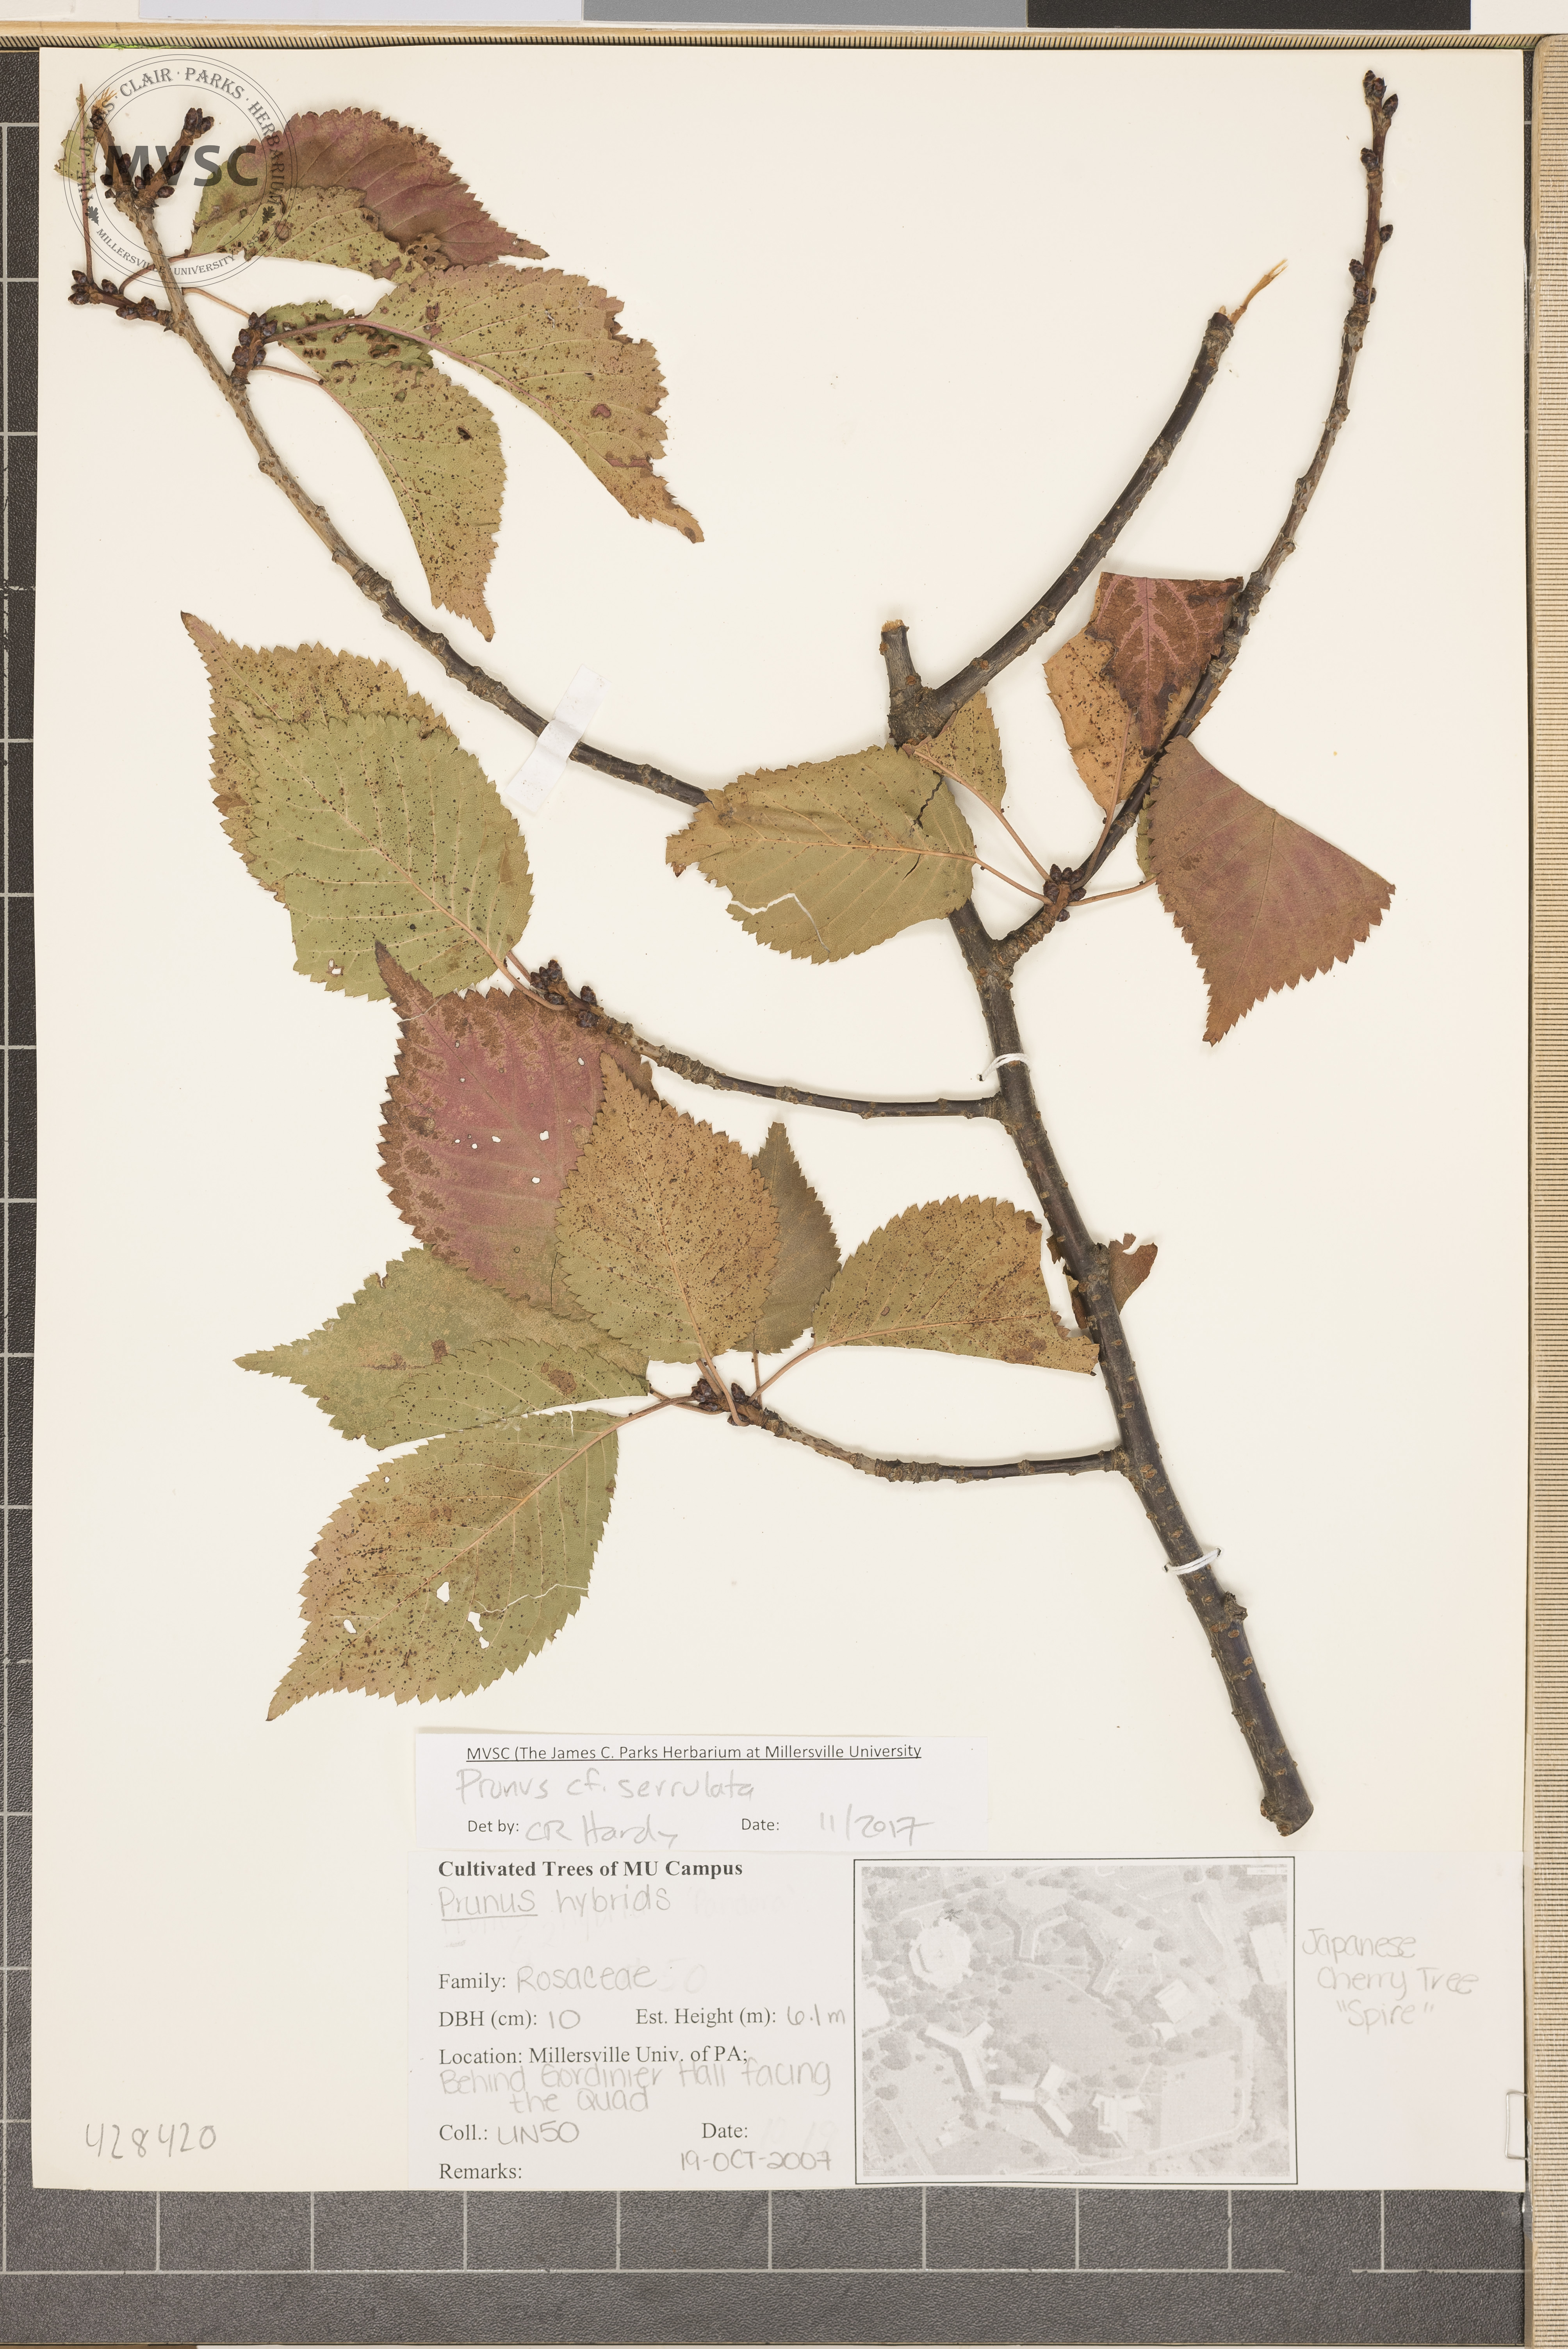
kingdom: Plantae
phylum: Tracheophyta
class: Magnoliopsida
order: Rosales
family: Rosaceae
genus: Prunus
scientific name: Prunus serrulata
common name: Cherry
